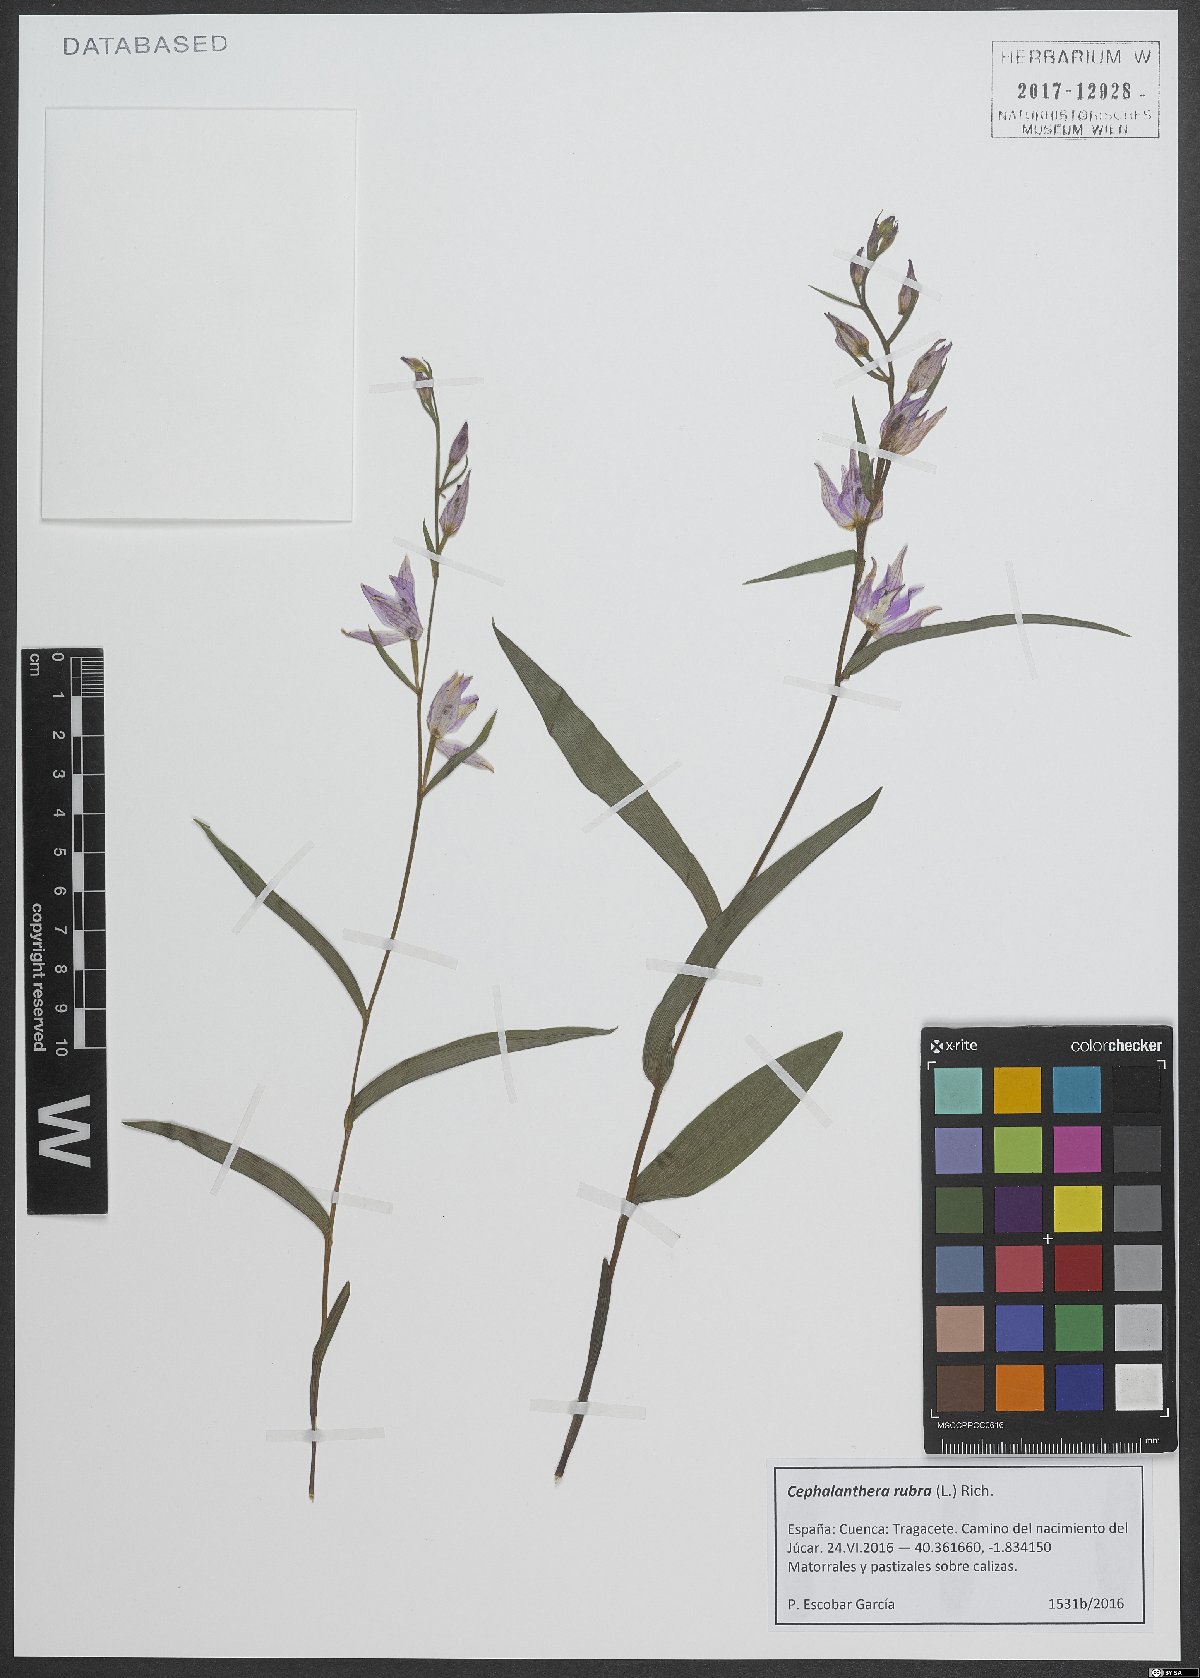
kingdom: Plantae
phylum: Tracheophyta
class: Liliopsida
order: Asparagales
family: Orchidaceae
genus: Cephalanthera
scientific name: Cephalanthera rubra
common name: Red helleborine
